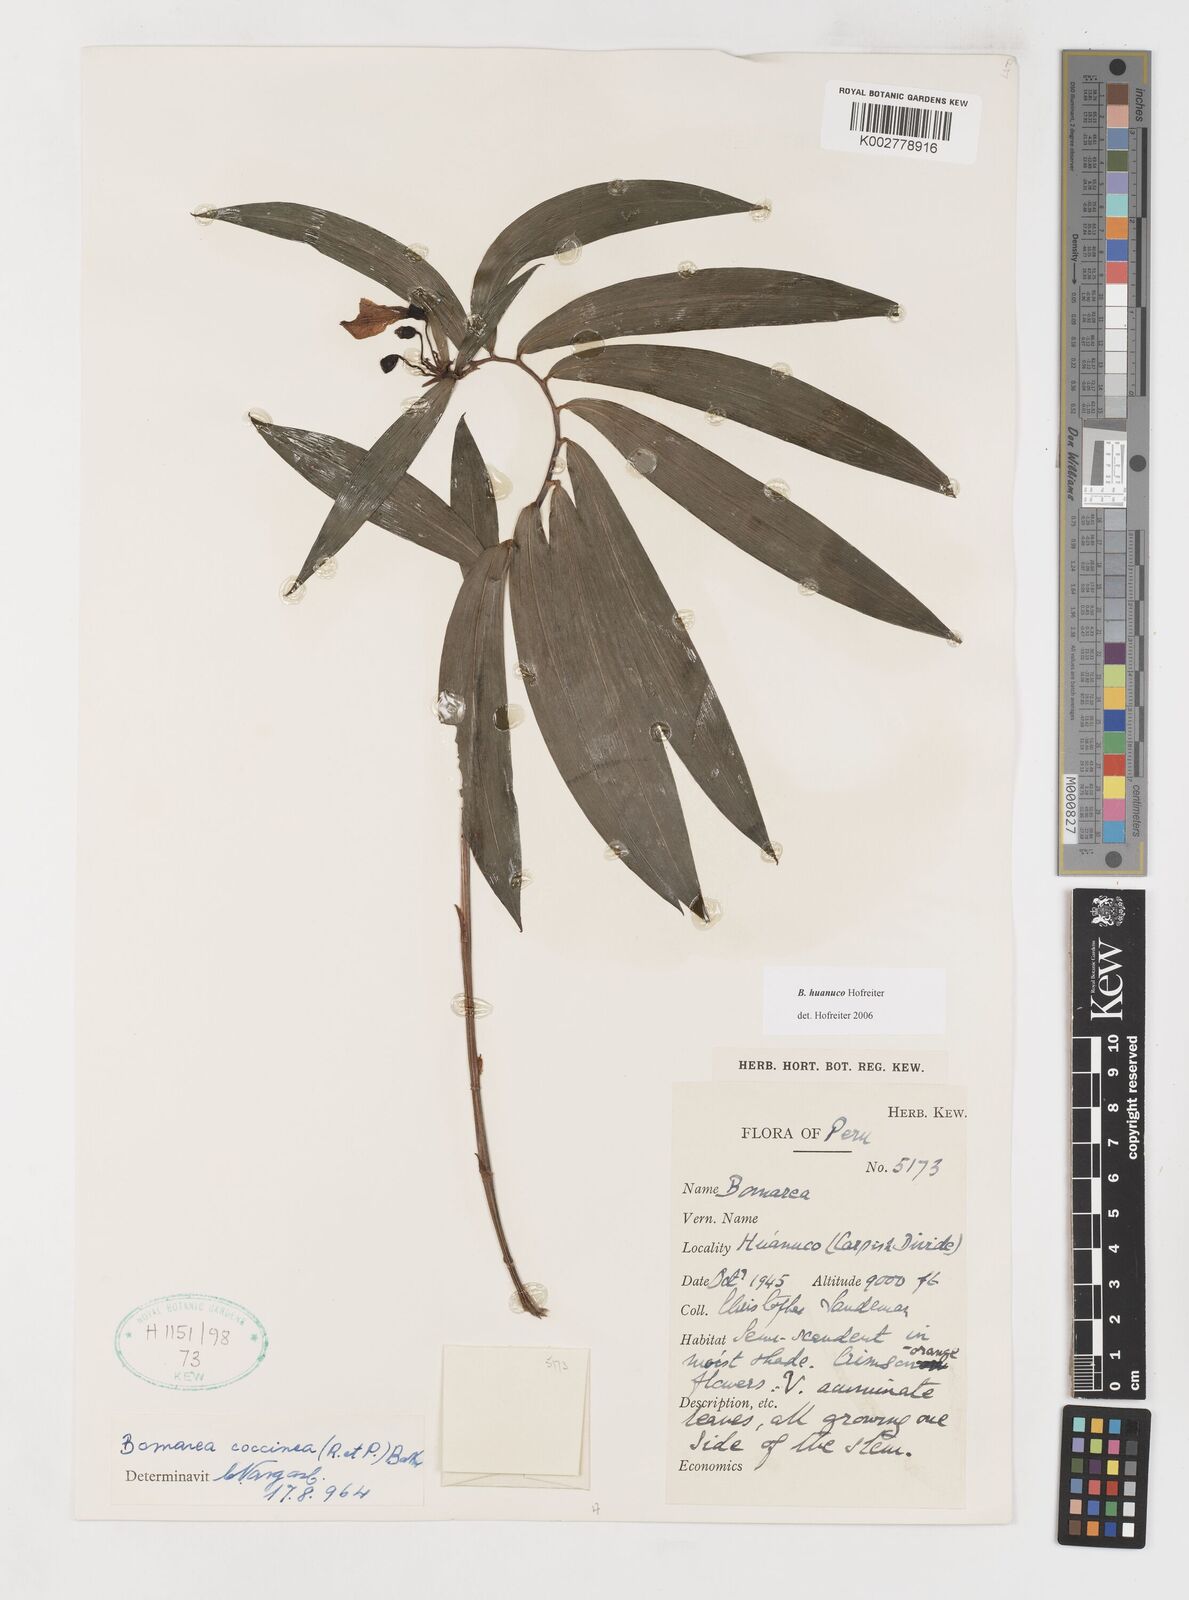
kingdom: Plantae
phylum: Tracheophyta
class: Liliopsida
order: Liliales
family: Alstroemeriaceae
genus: Bomarea
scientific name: Bomarea huanuco
